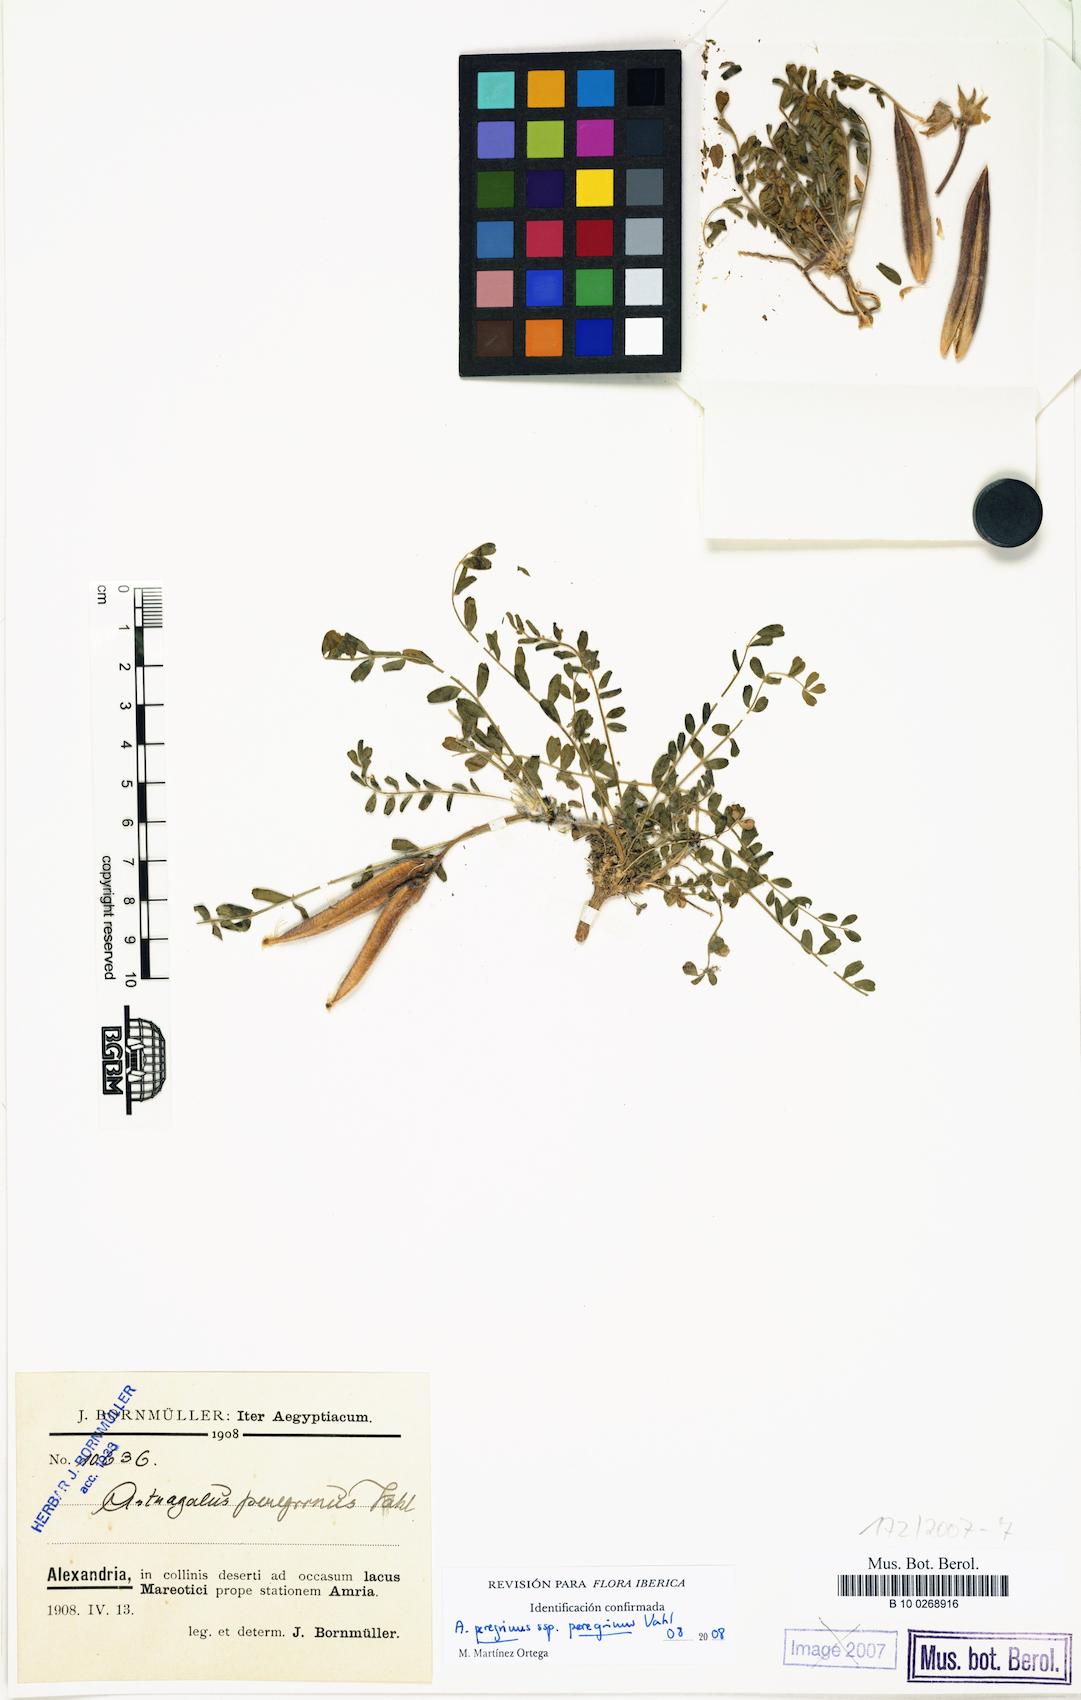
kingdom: Plantae
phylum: Tracheophyta
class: Magnoliopsida
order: Fabales
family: Fabaceae
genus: Astragalus
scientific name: Astragalus peregrinus
